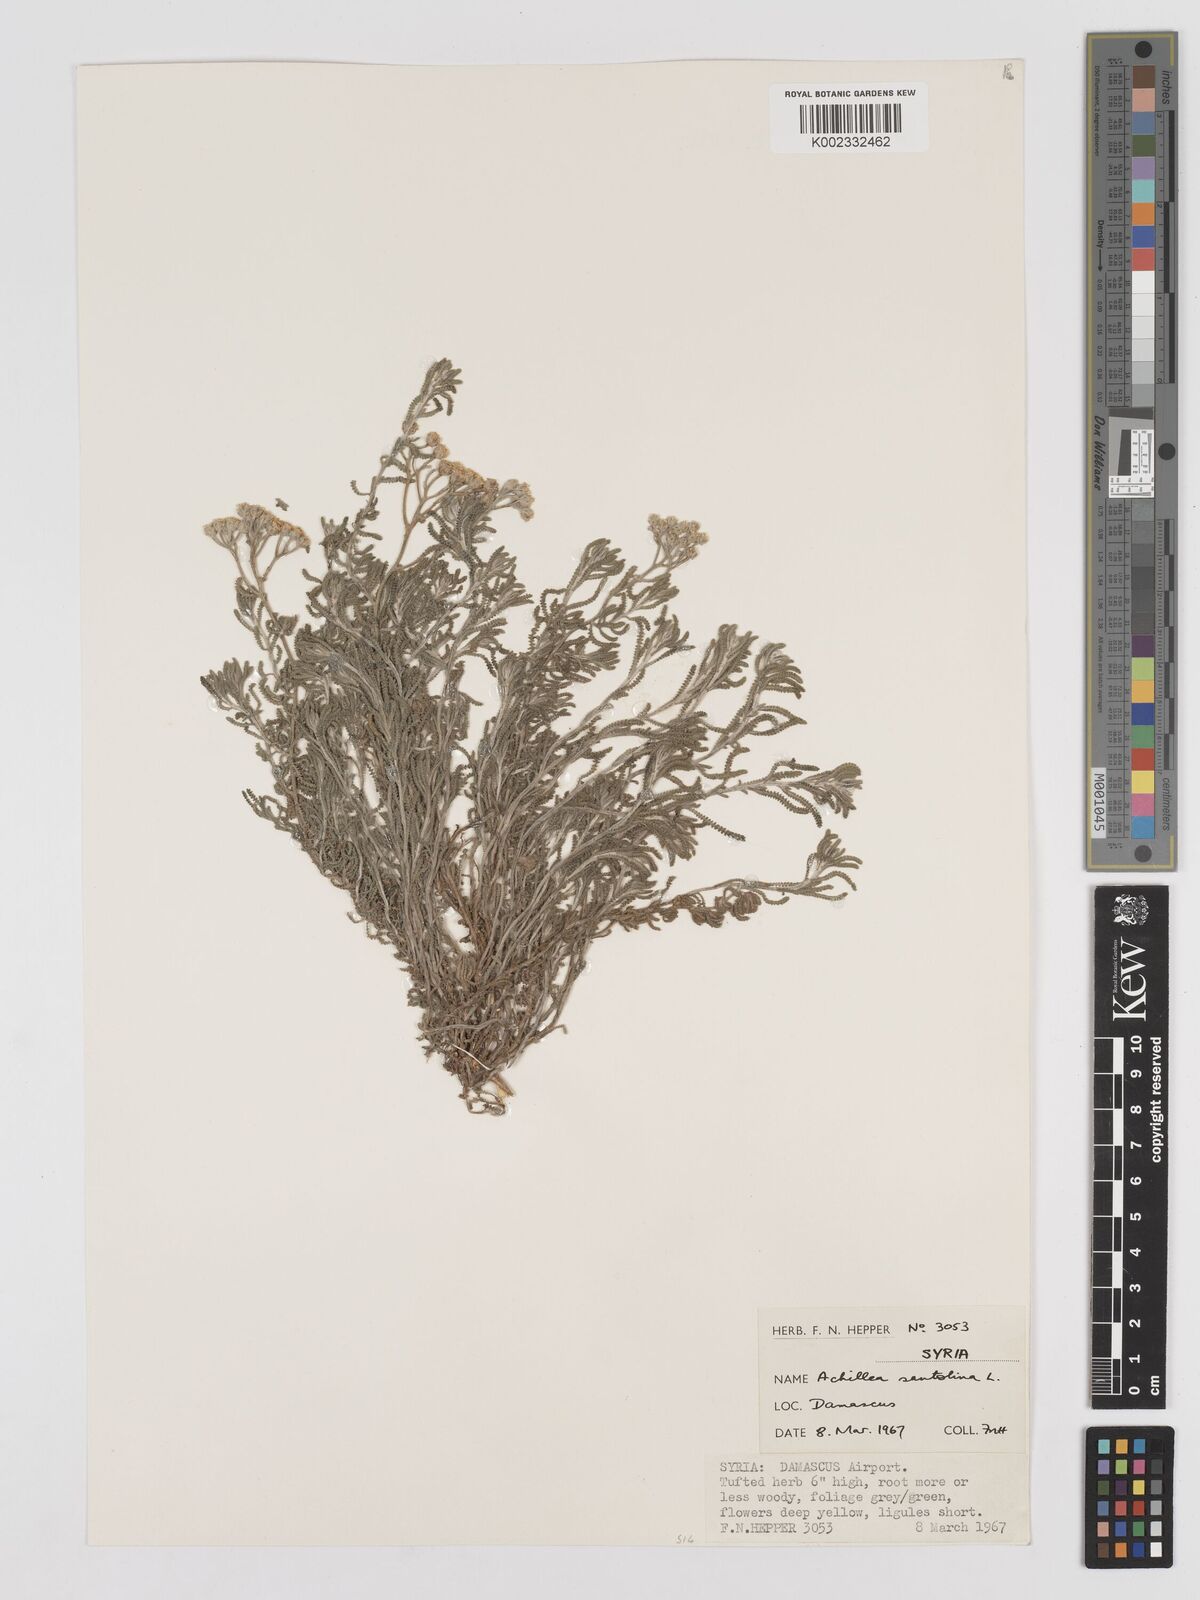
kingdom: Plantae
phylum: Tracheophyta
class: Magnoliopsida
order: Asterales
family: Asteraceae
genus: Achillea
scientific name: Achillea tenuifolia
